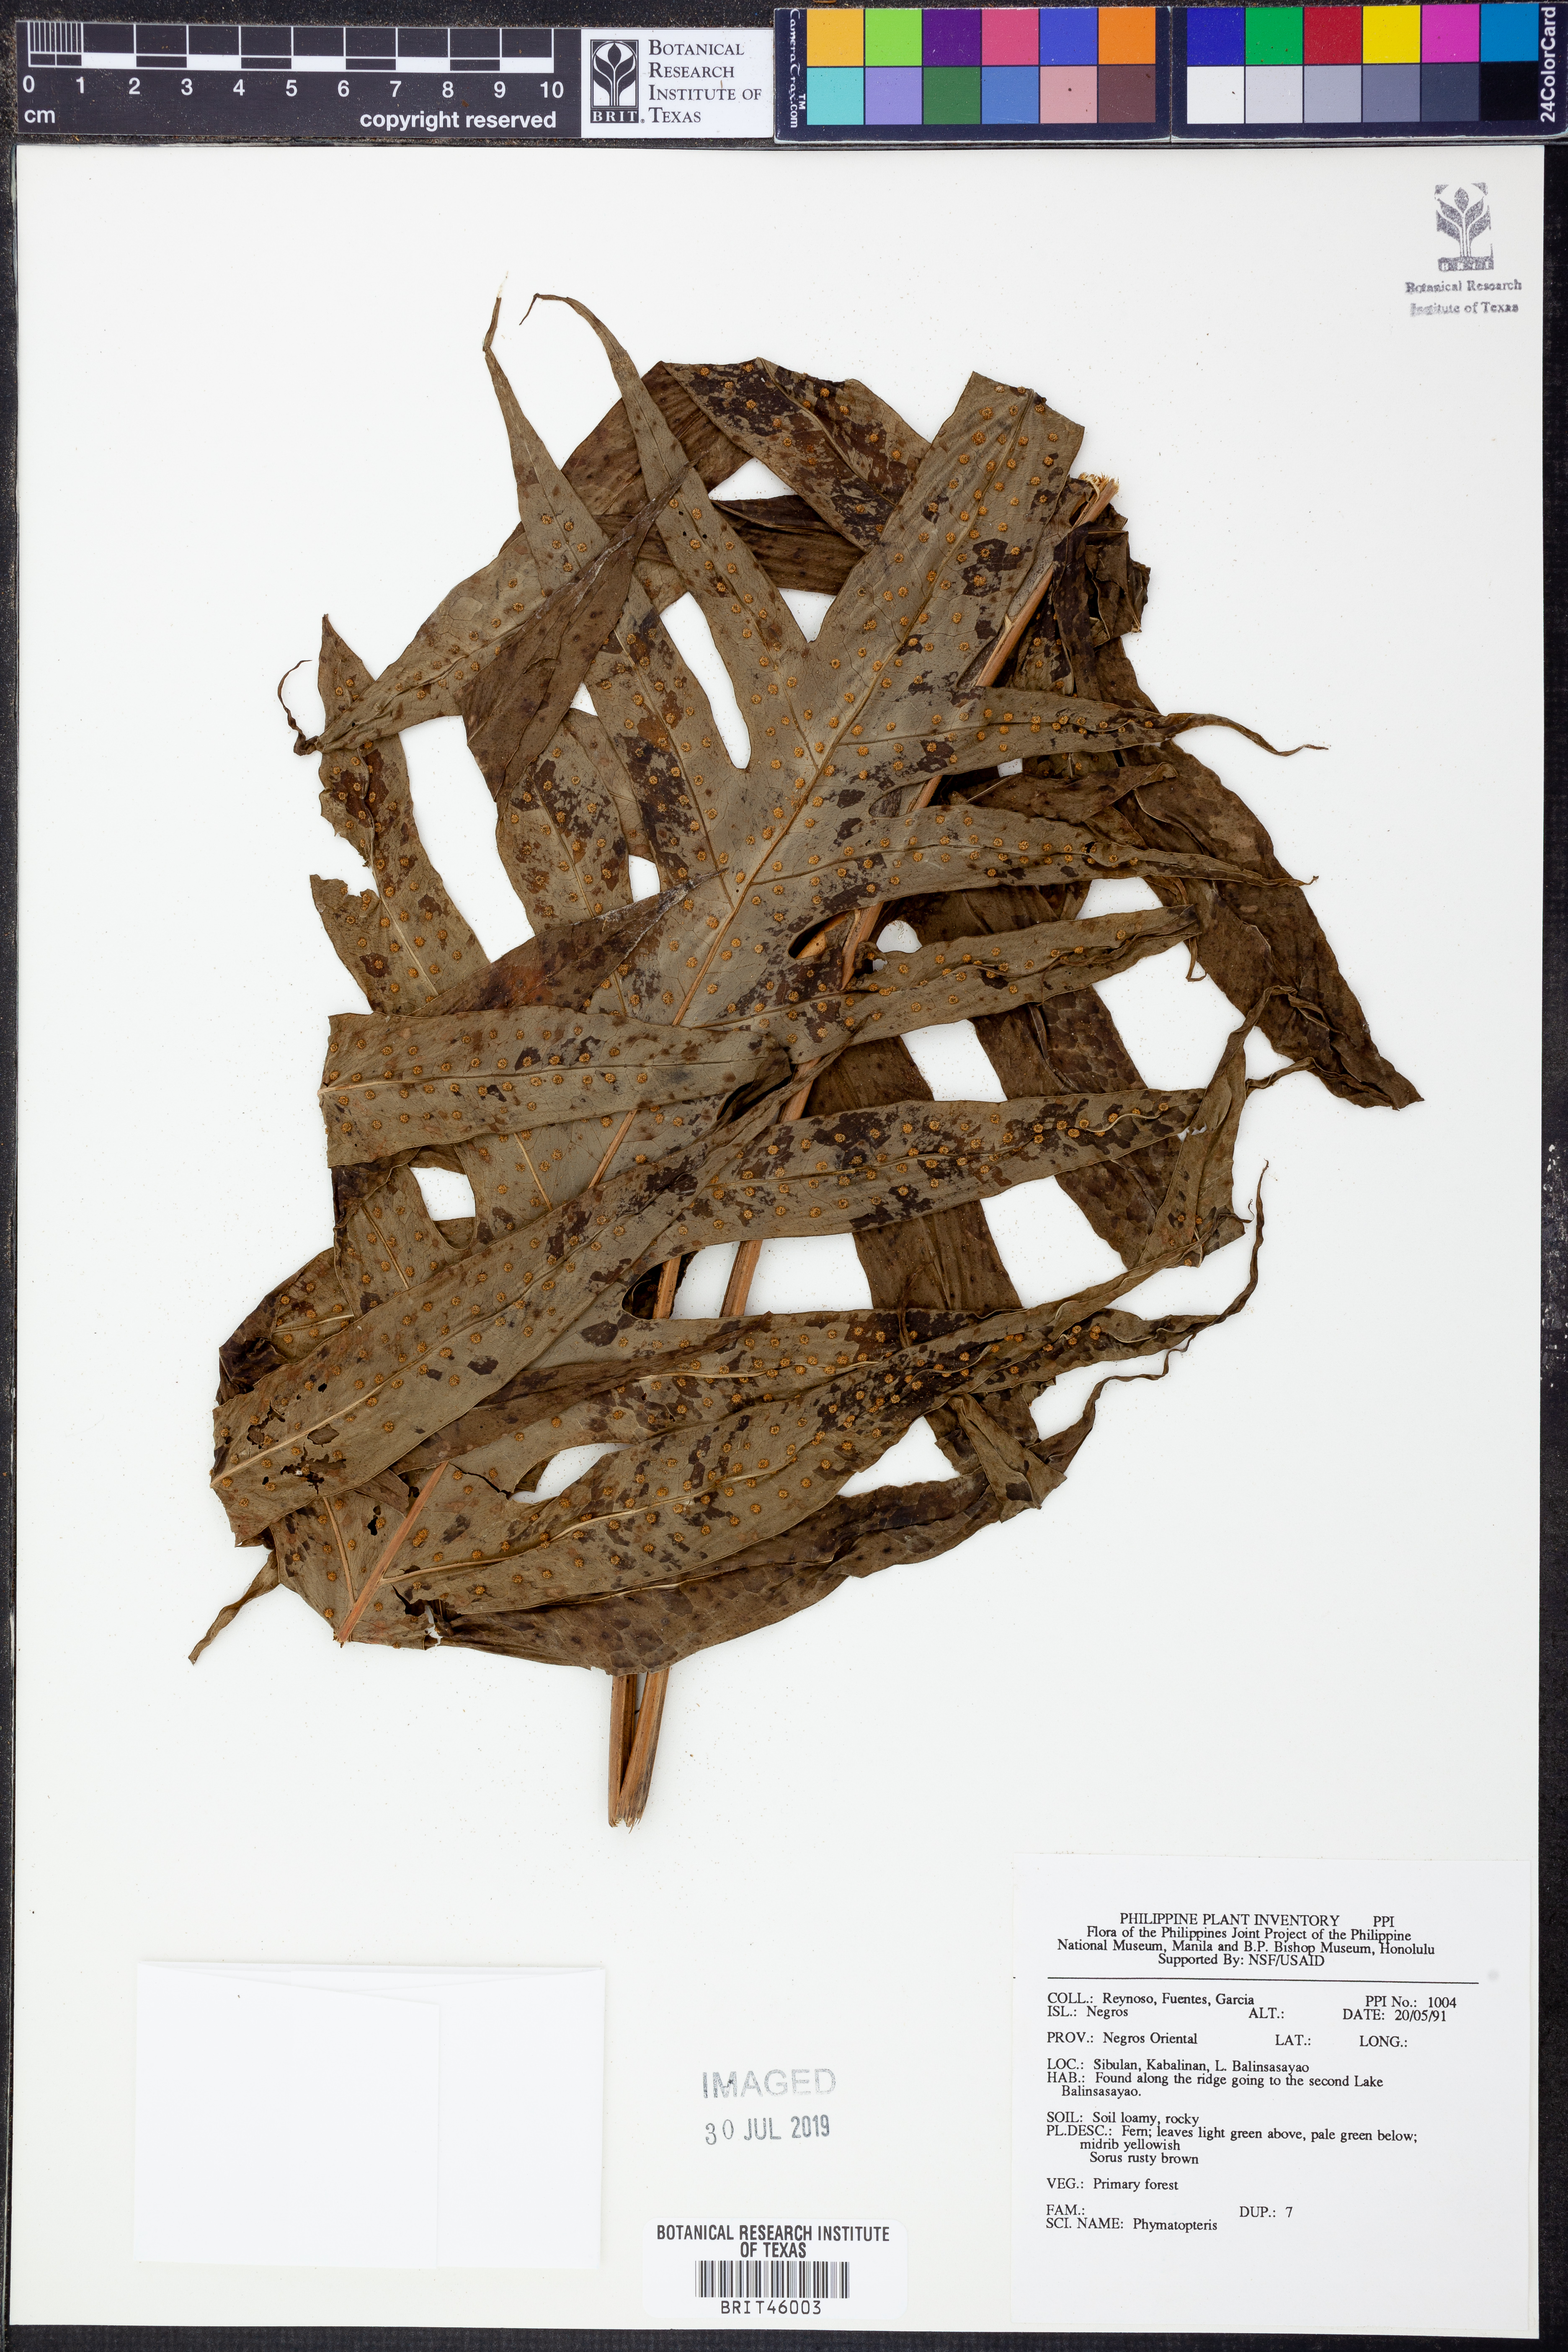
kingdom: Plantae
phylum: Tracheophyta
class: Polypodiopsida
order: Polypodiales
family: Polypodiaceae
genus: Selliguea
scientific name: Selliguea
